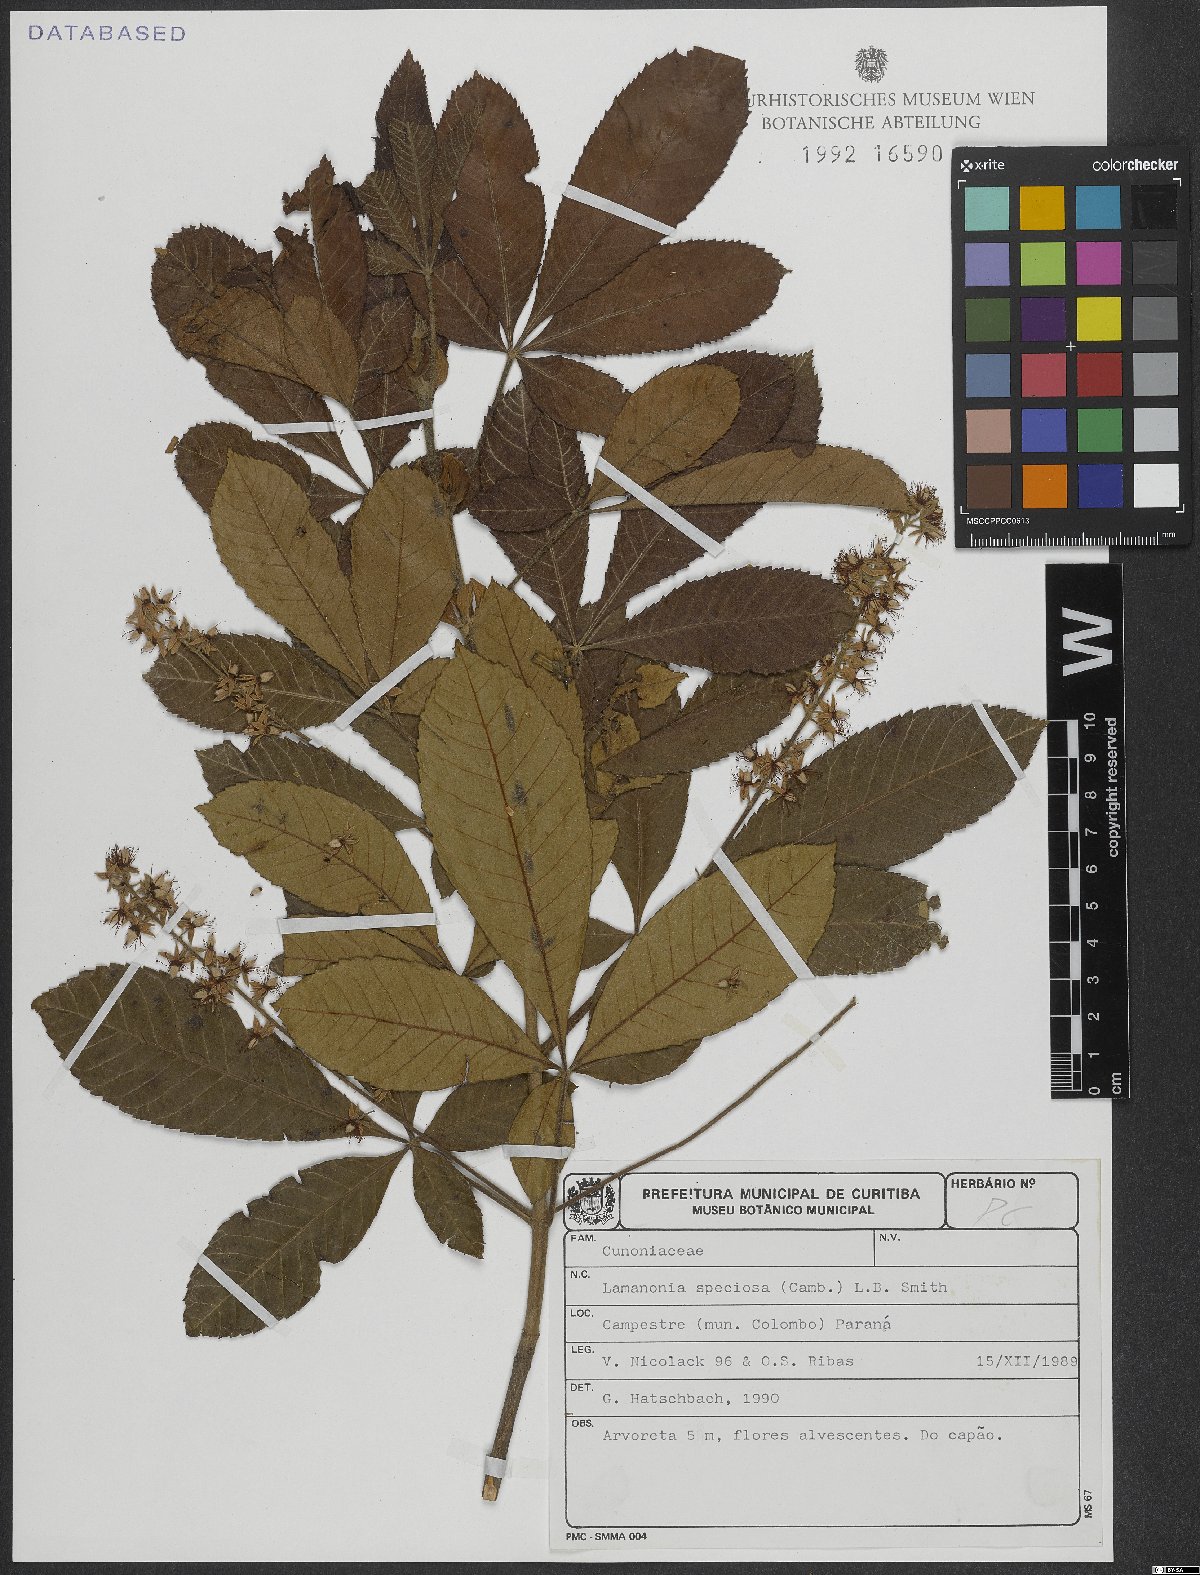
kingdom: Plantae
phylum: Tracheophyta
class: Magnoliopsida
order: Oxalidales
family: Cunoniaceae
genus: Lamanonia
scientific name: Lamanonia speciosa
